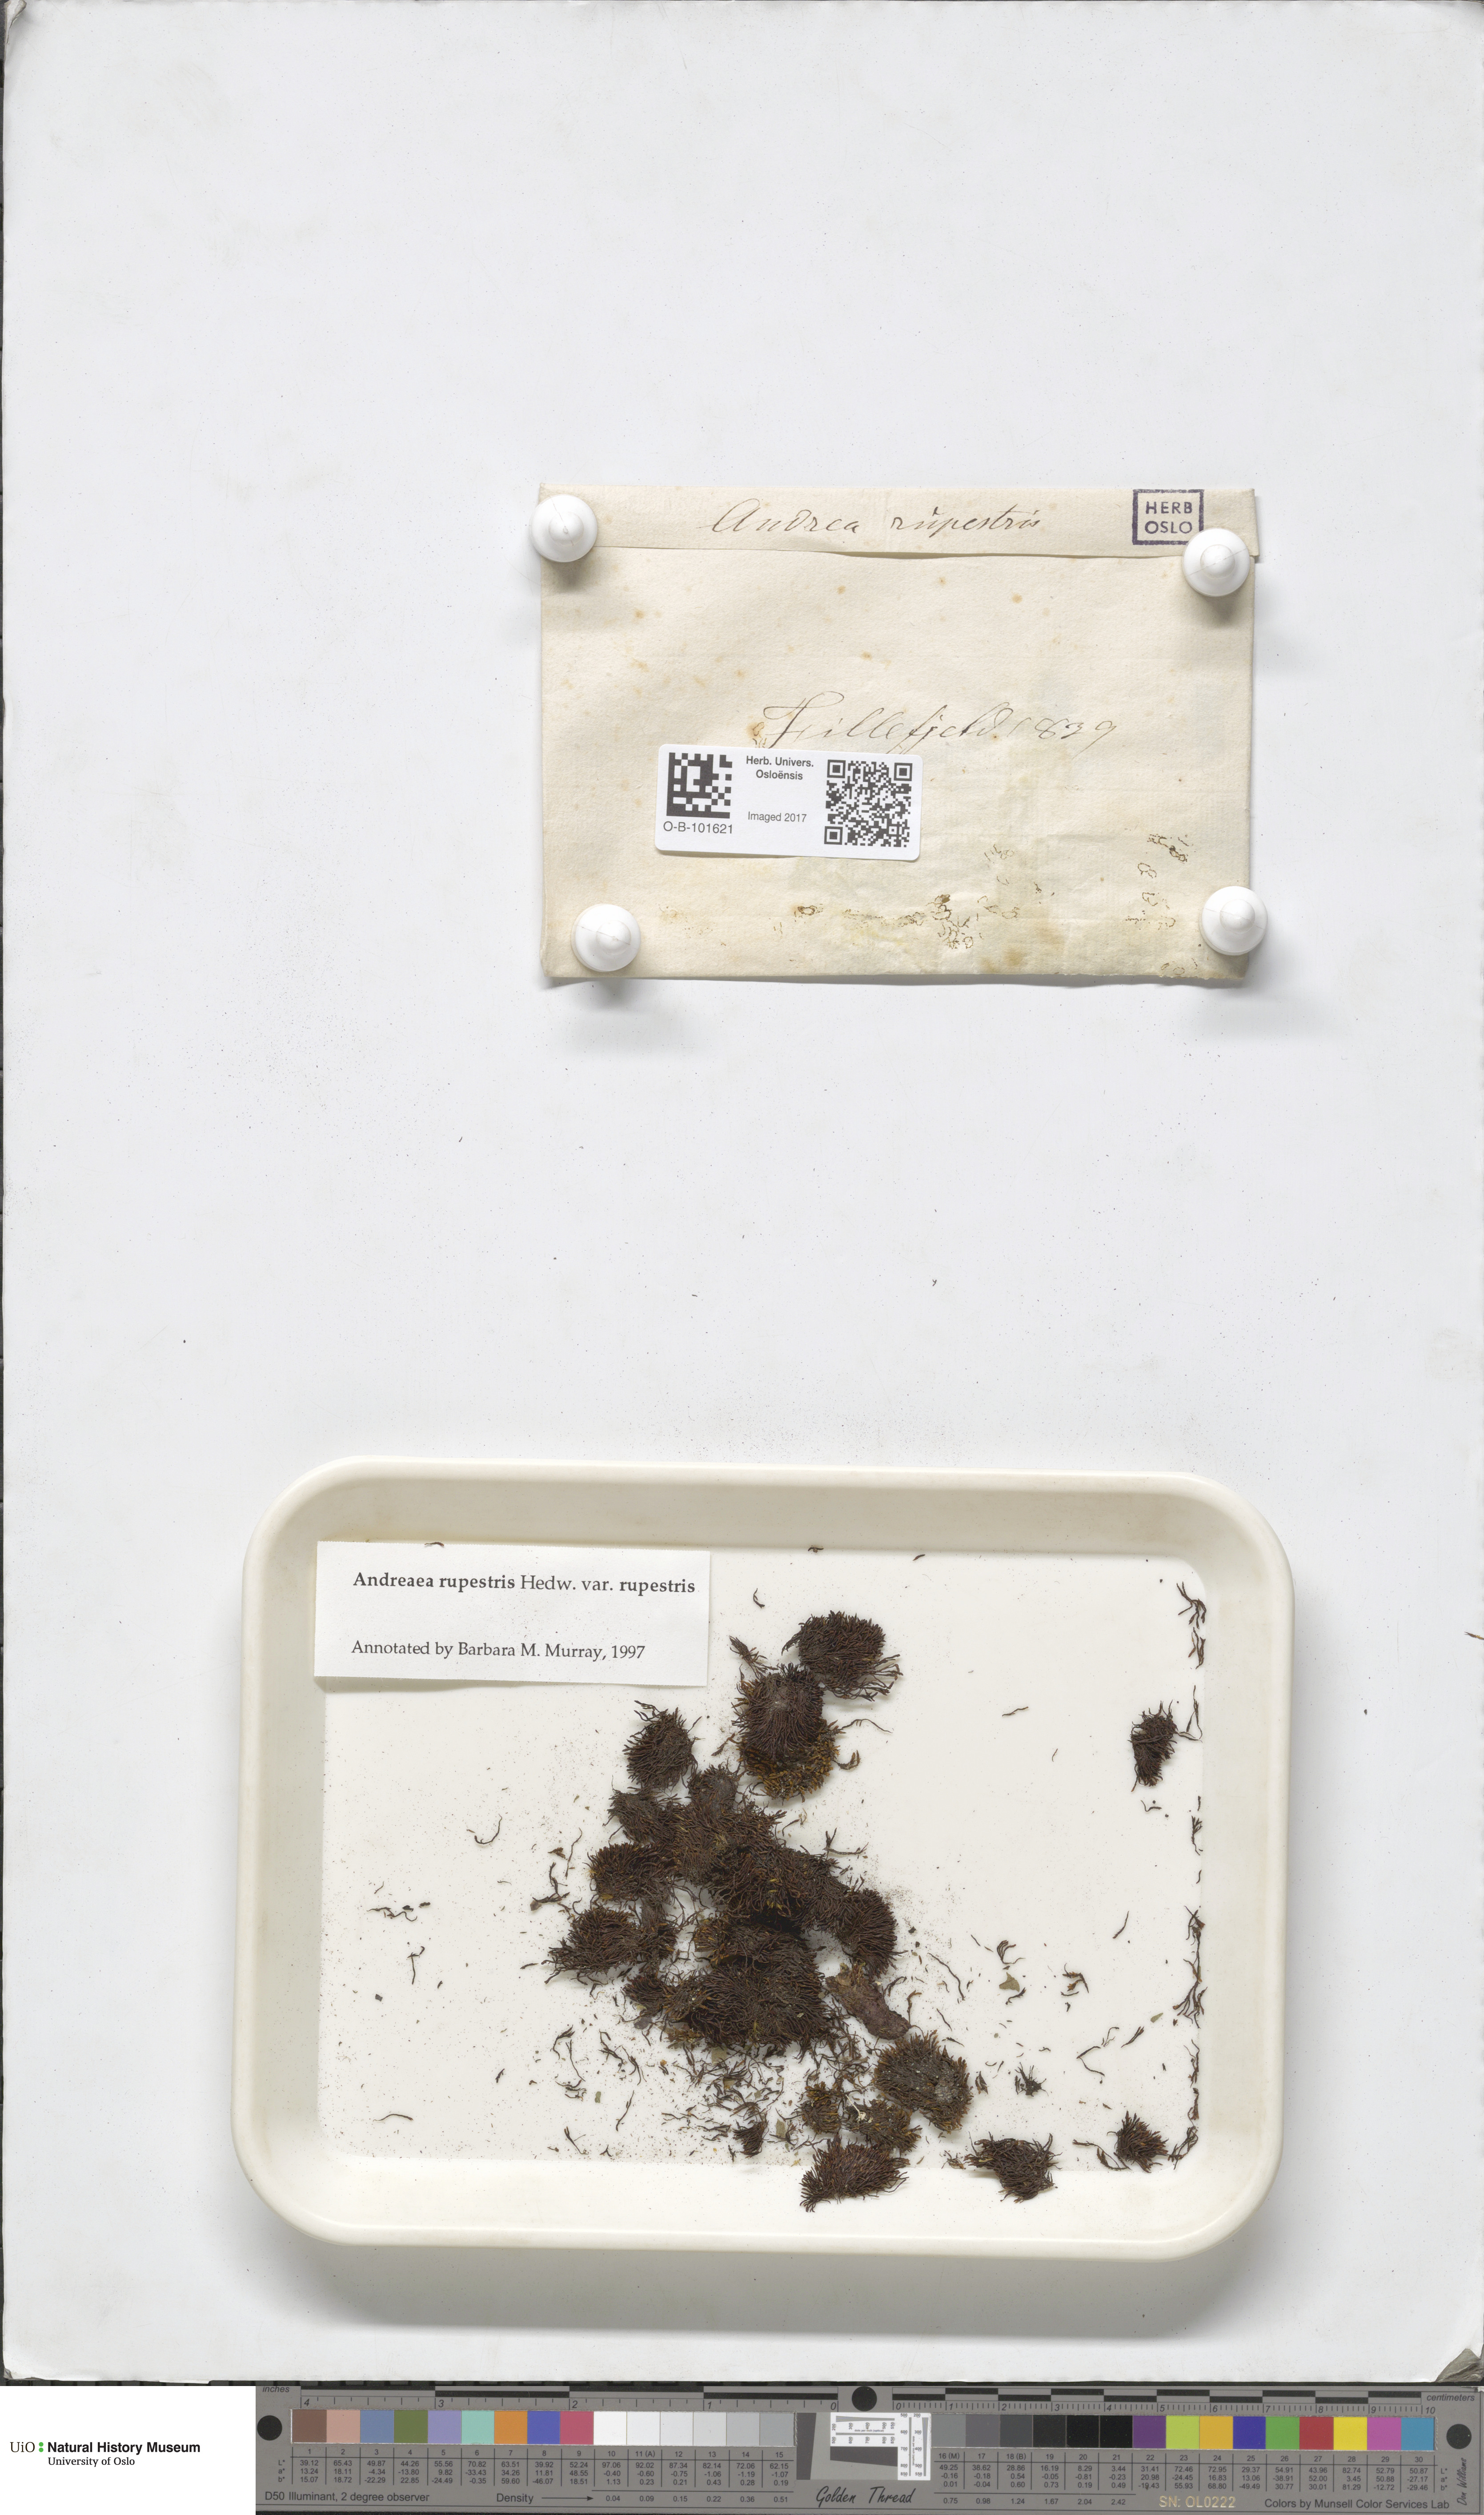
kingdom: Plantae
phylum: Bryophyta
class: Andreaeopsida
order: Andreaeales
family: Andreaeaceae
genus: Andreaea
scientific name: Andreaea rupestris
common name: Black rock moss
